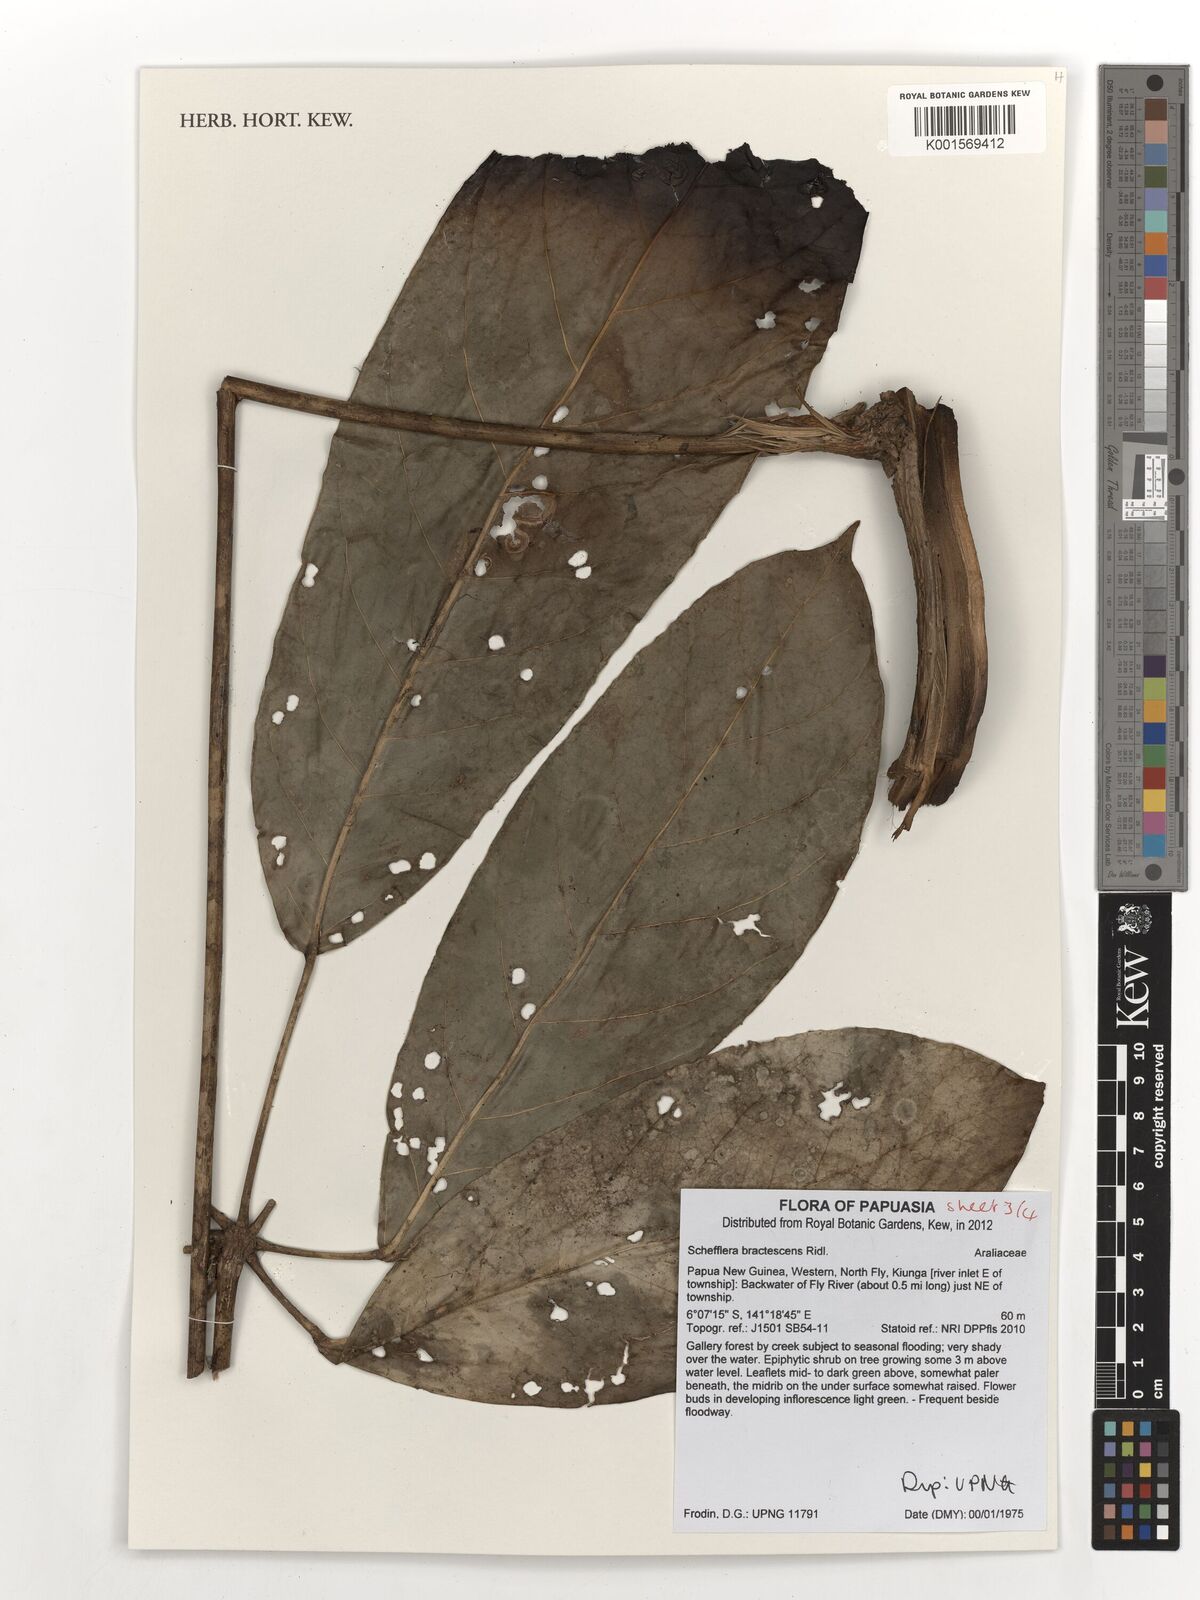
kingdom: Plantae
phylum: Tracheophyta
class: Magnoliopsida
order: Apiales
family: Araliaceae
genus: Heptapleurum
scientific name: Heptapleurum bractescens
